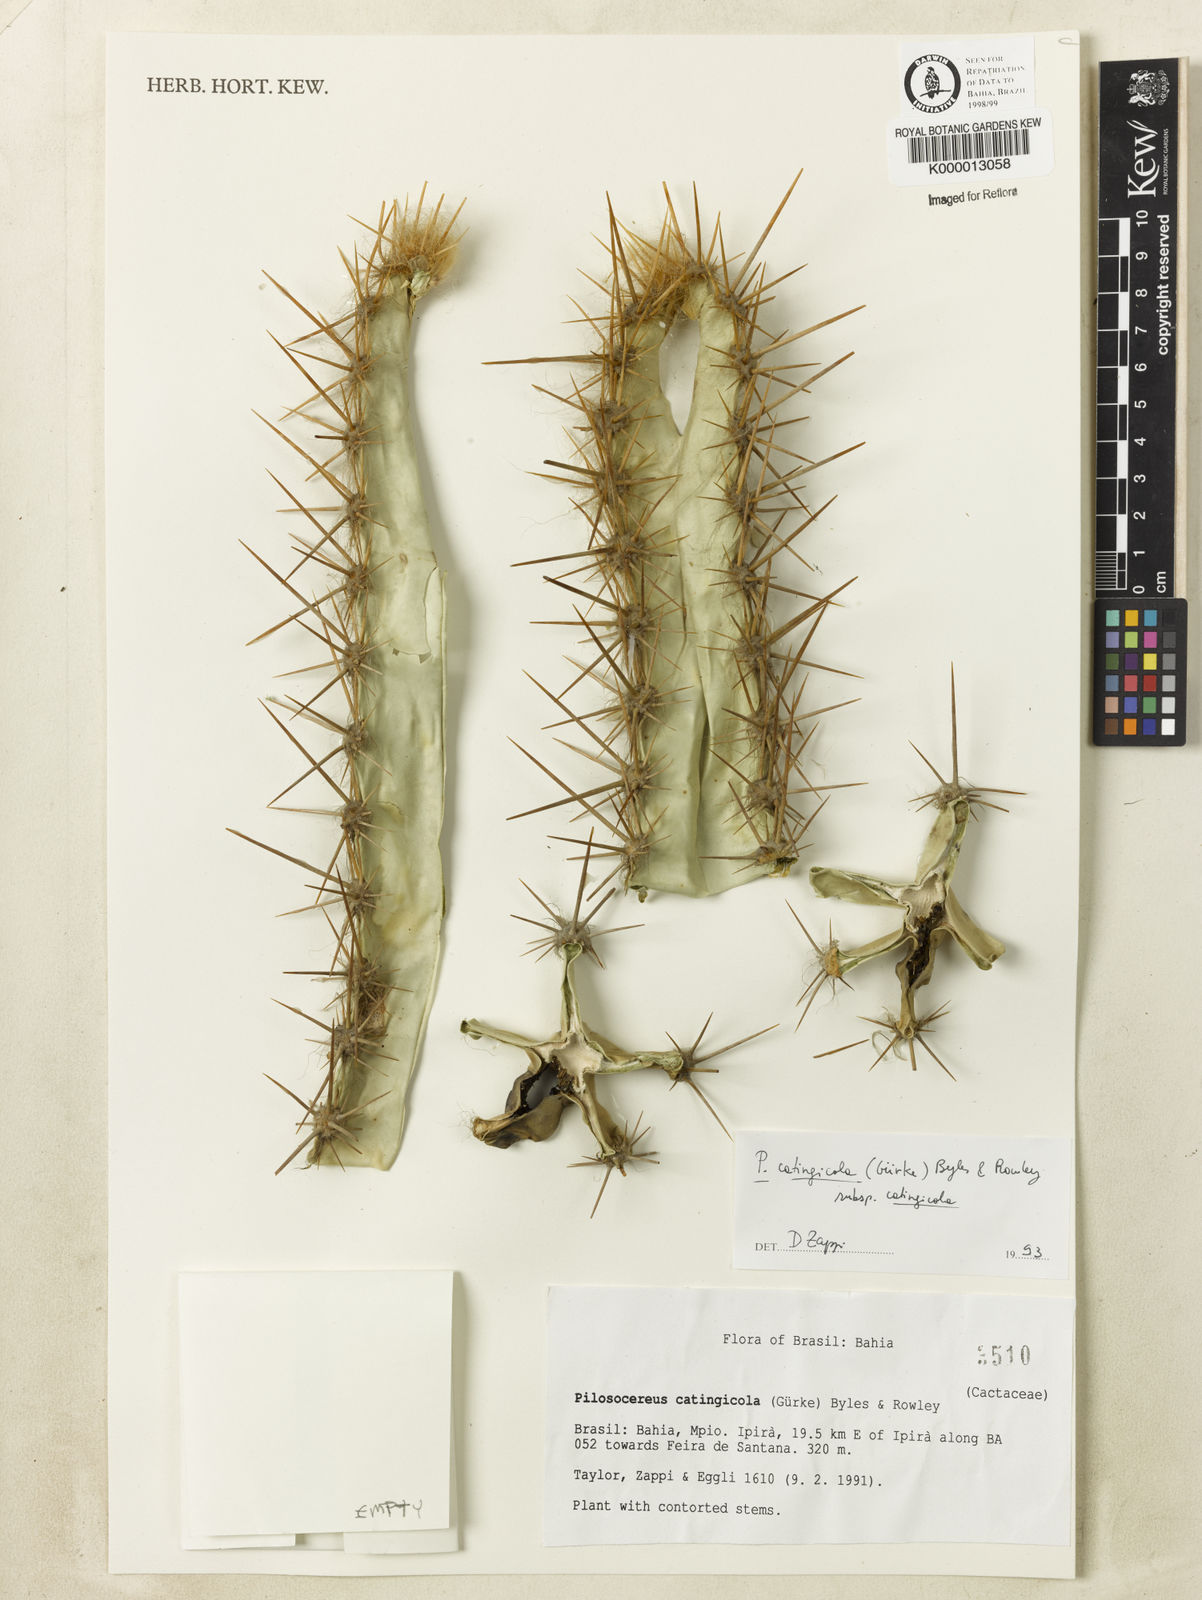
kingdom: Plantae
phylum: Tracheophyta
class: Magnoliopsida
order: Caryophyllales
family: Cactaceae
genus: Pilosocereus
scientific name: Pilosocereus catingicola
